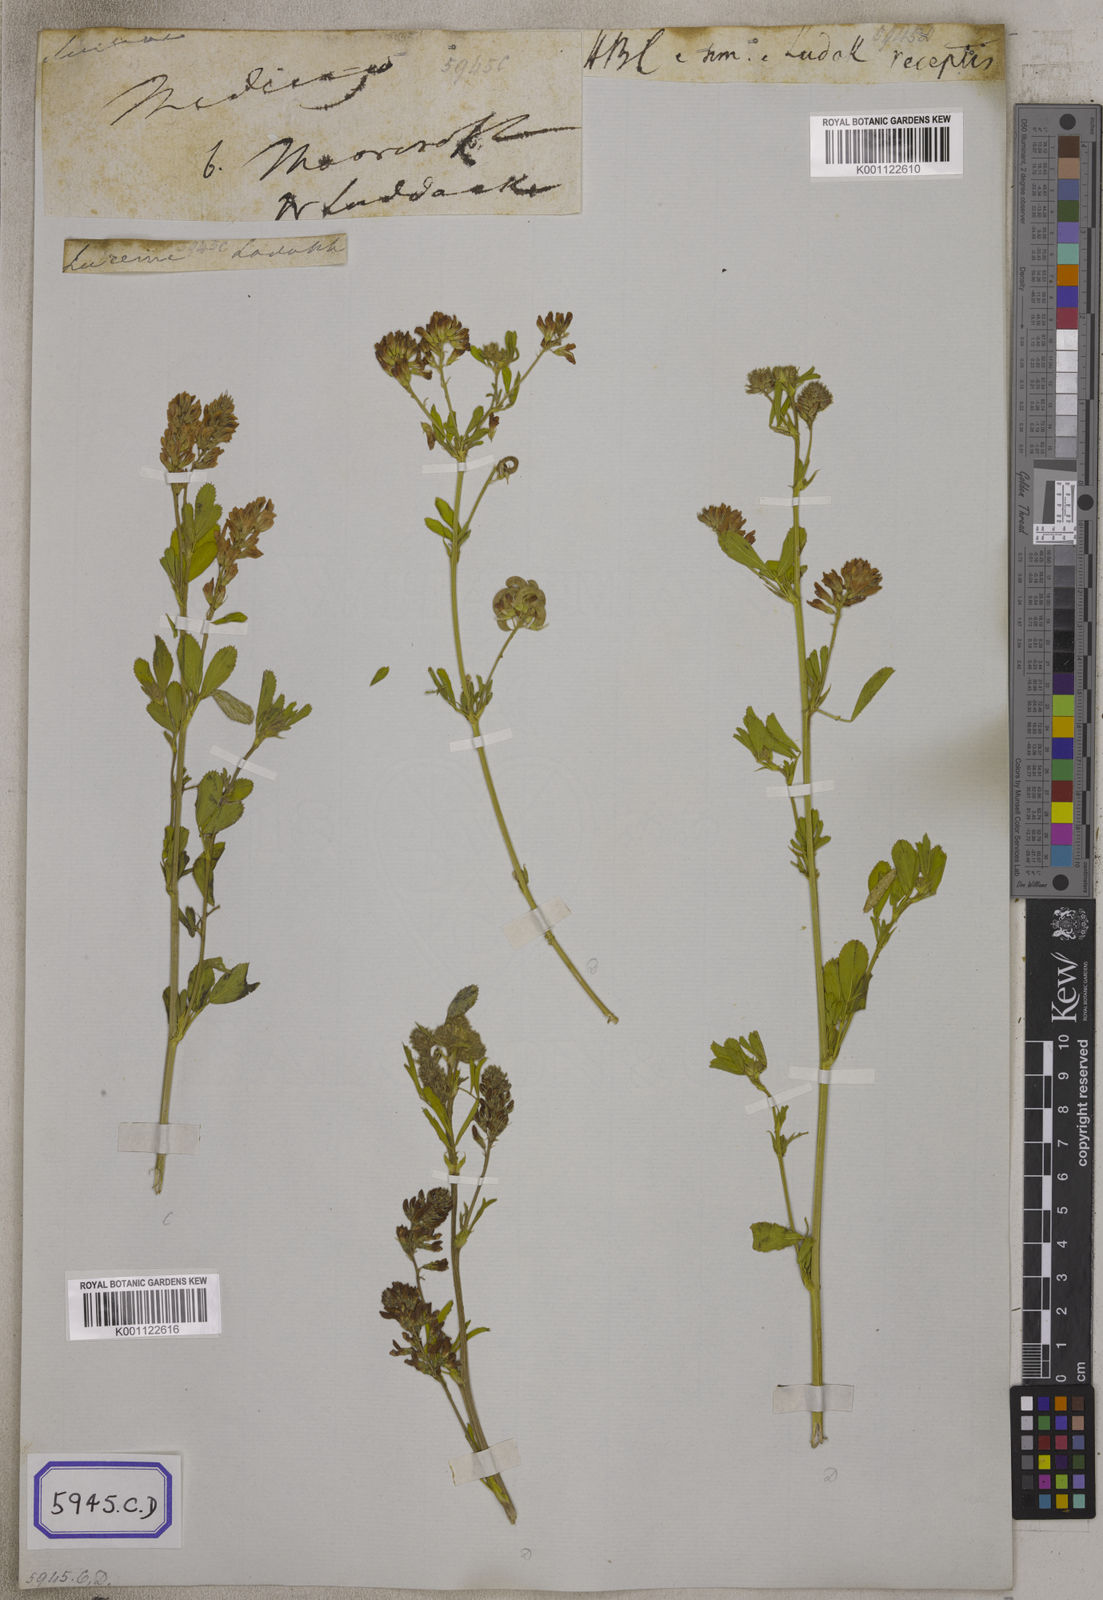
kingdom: Plantae
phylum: Tracheophyta
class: Magnoliopsida
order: Fabales
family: Fabaceae
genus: Medicago
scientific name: Medicago sativa
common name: Alfalfa
